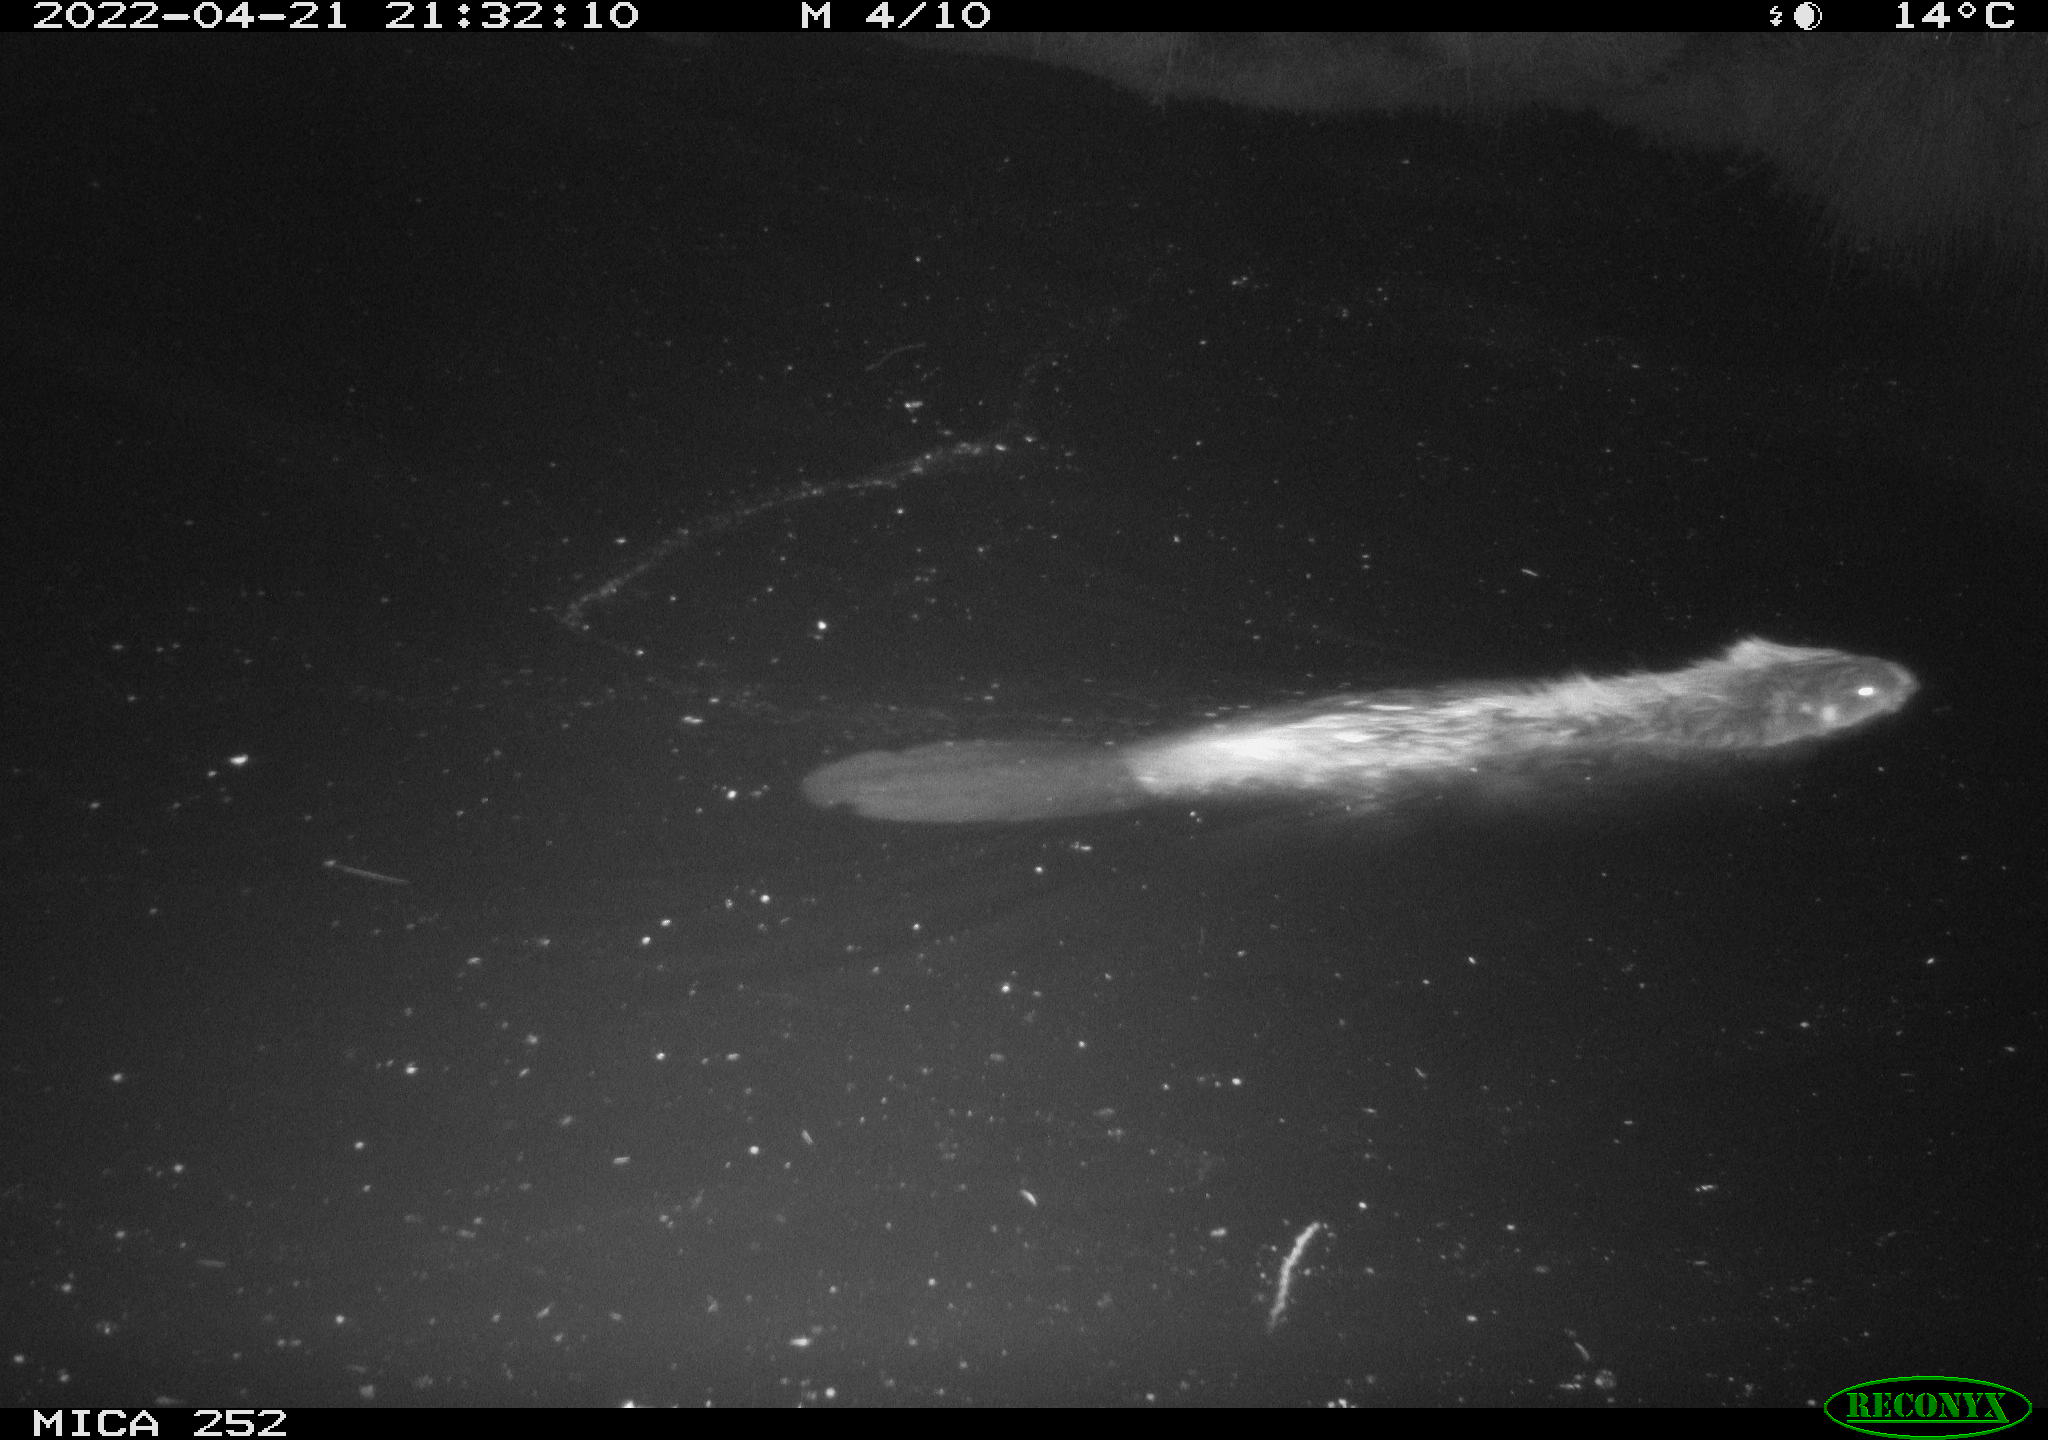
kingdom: Animalia
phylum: Chordata
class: Mammalia
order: Rodentia
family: Castoridae
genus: Castor
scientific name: Castor fiber
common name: Eurasian beaver
